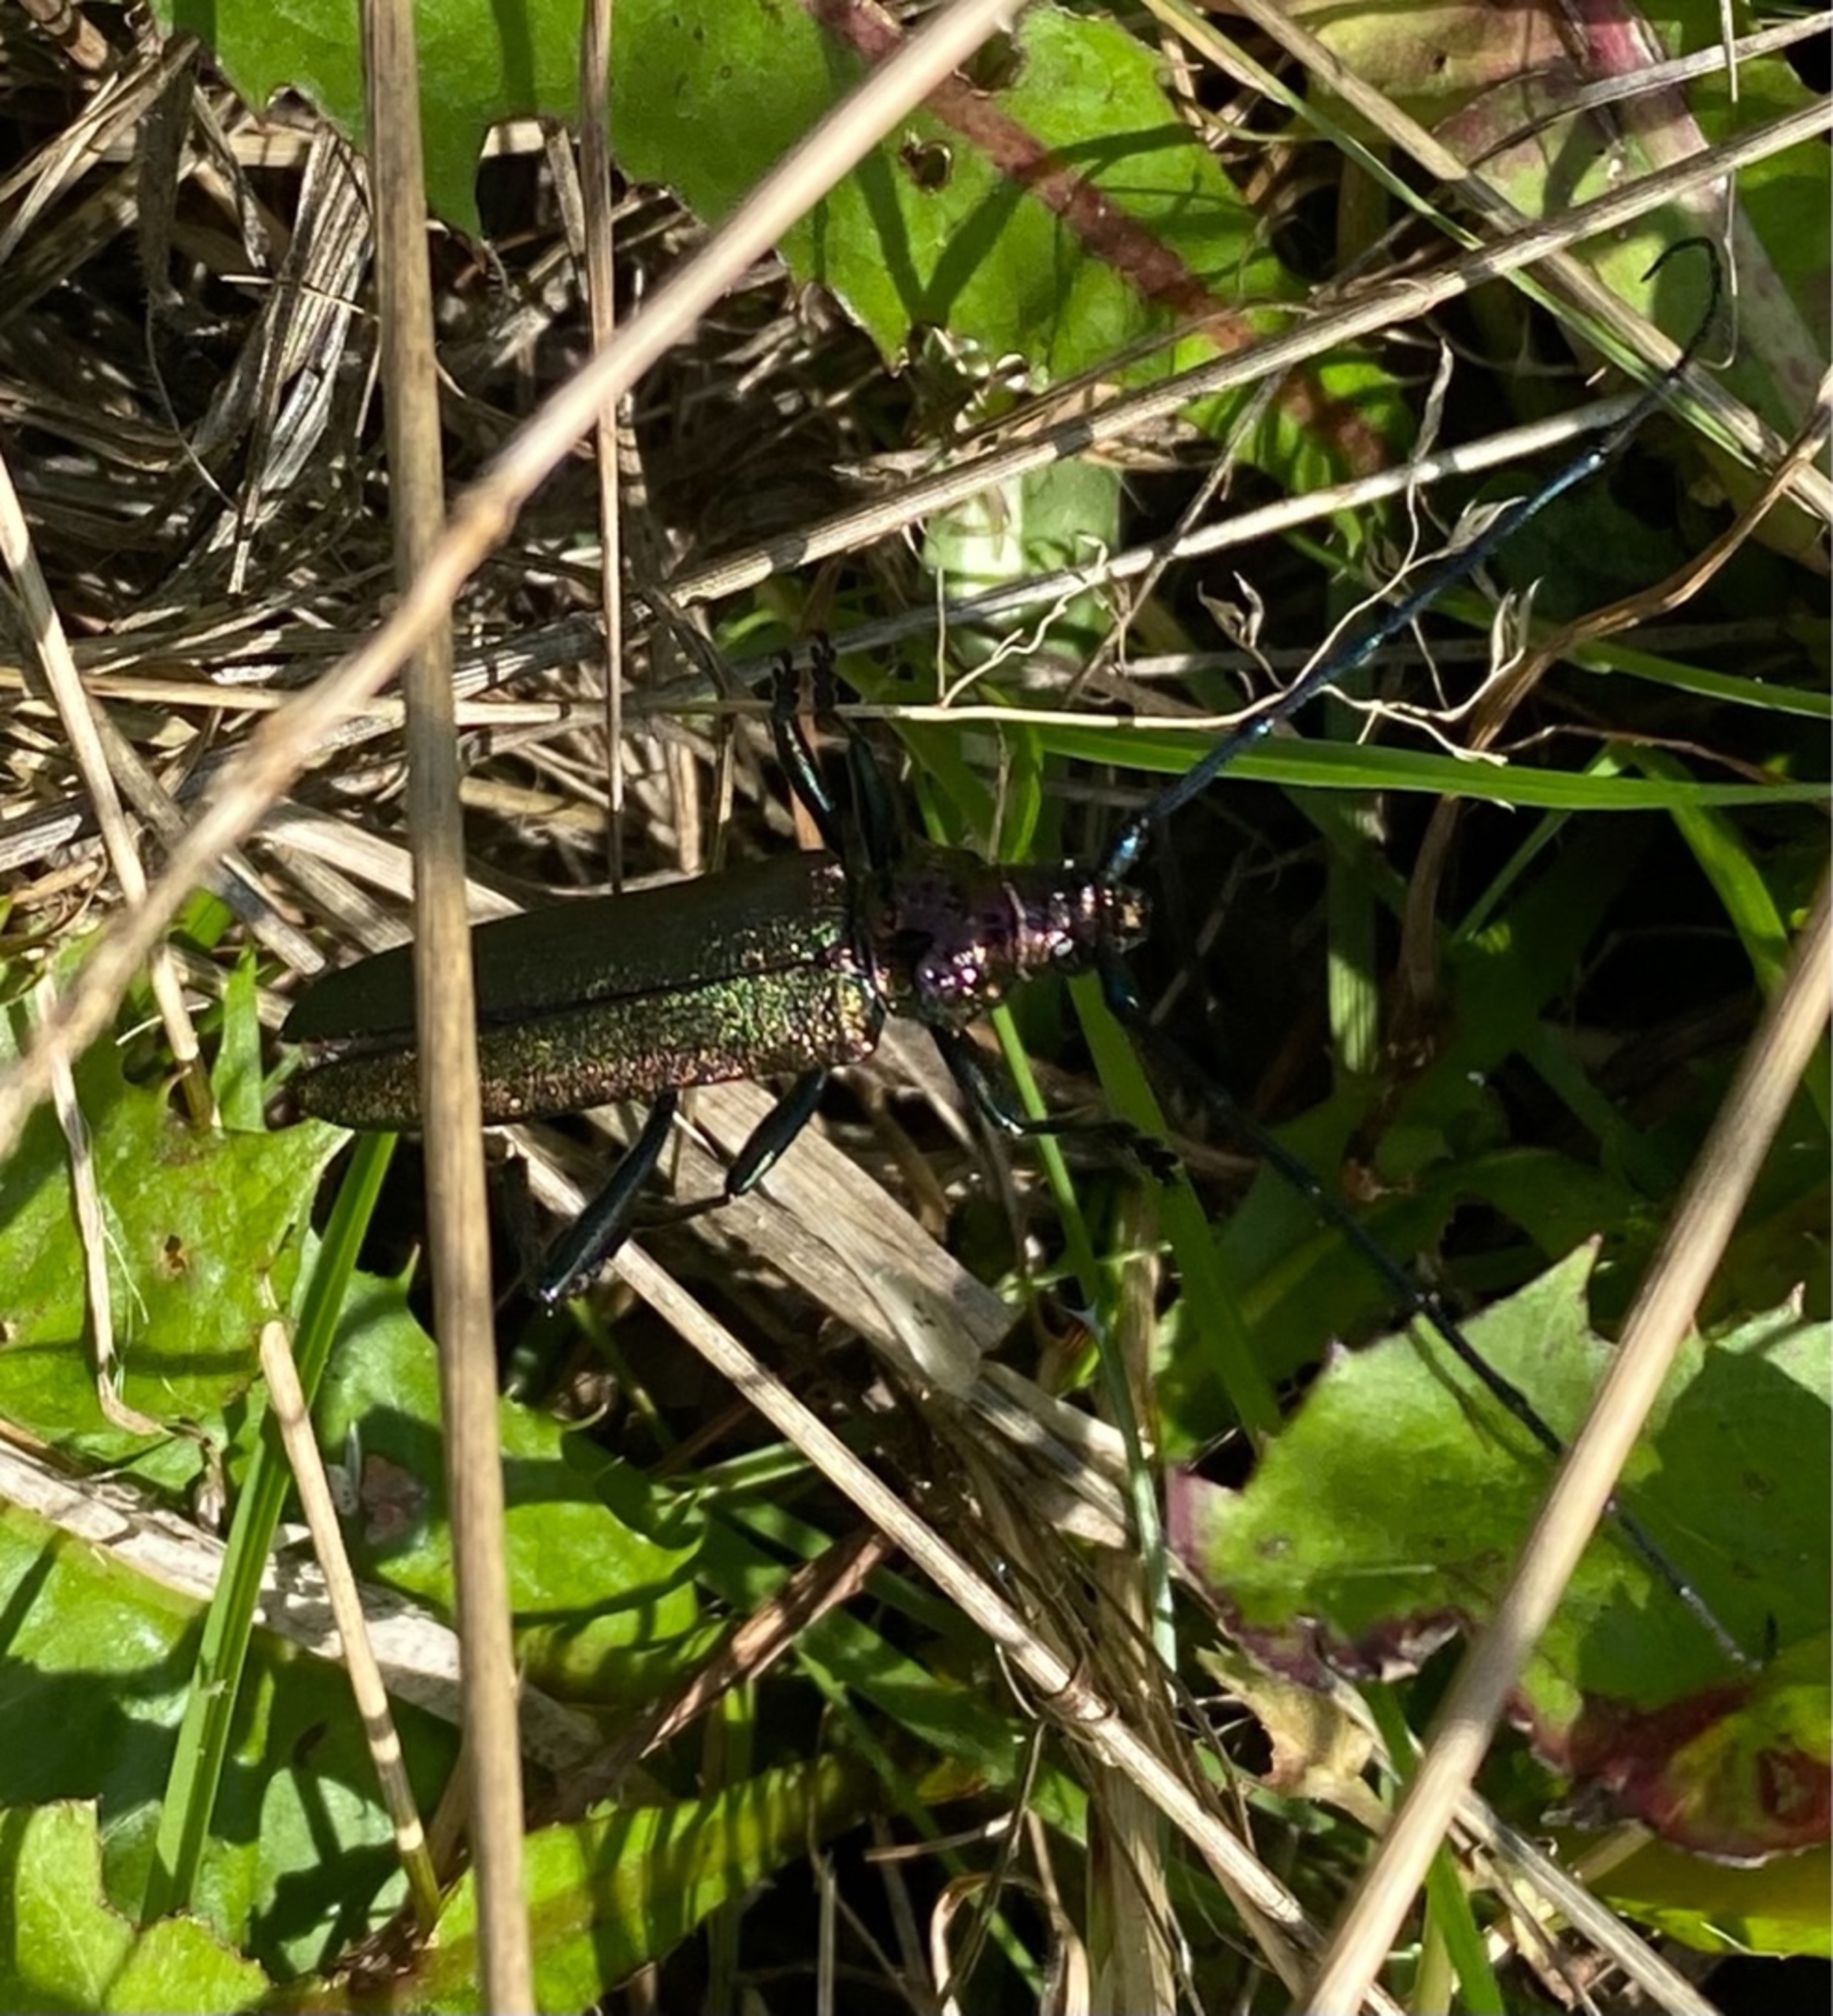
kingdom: Animalia
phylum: Arthropoda
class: Insecta
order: Coleoptera
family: Cerambycidae
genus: Aromia
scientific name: Aromia moschata
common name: Moskusbuk
